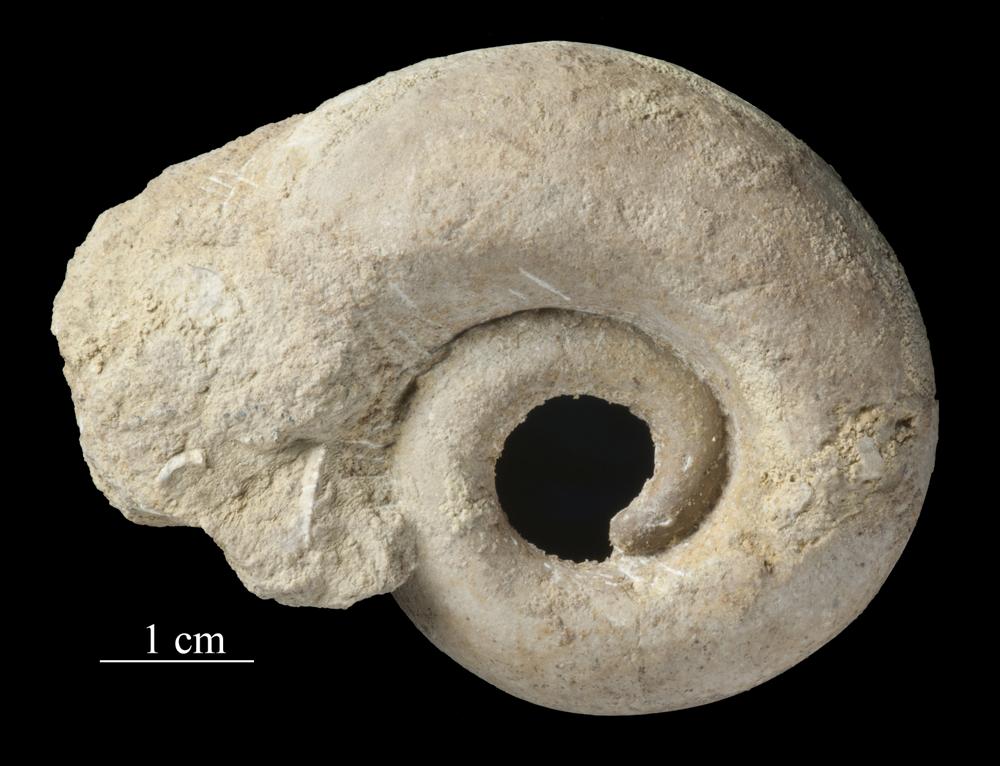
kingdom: Animalia
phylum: Mollusca
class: Gastropoda
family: Lesueurillidae
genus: Mestoronema
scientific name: Mestoronema Euomphalus marginalis
